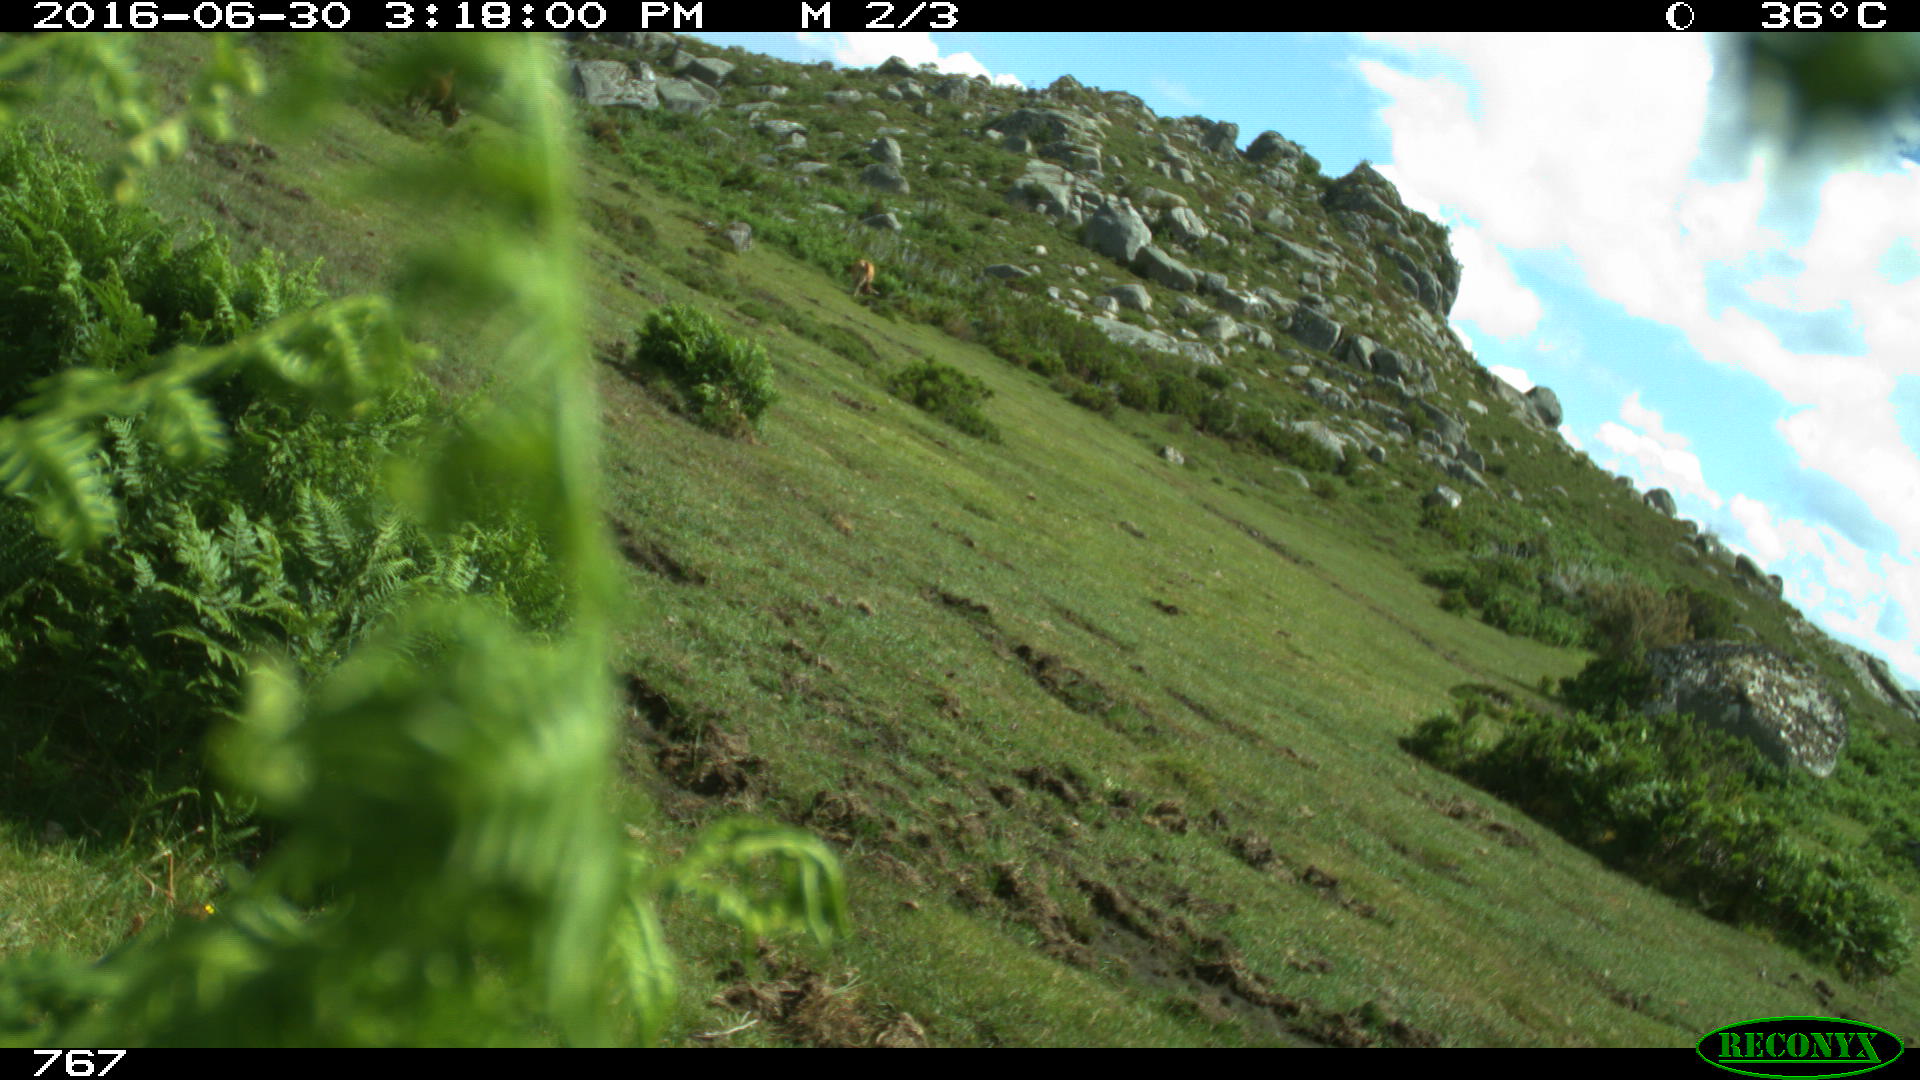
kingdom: Animalia
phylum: Chordata
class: Mammalia
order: Artiodactyla
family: Bovidae
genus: Bos
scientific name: Bos taurus
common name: Domesticated cattle
